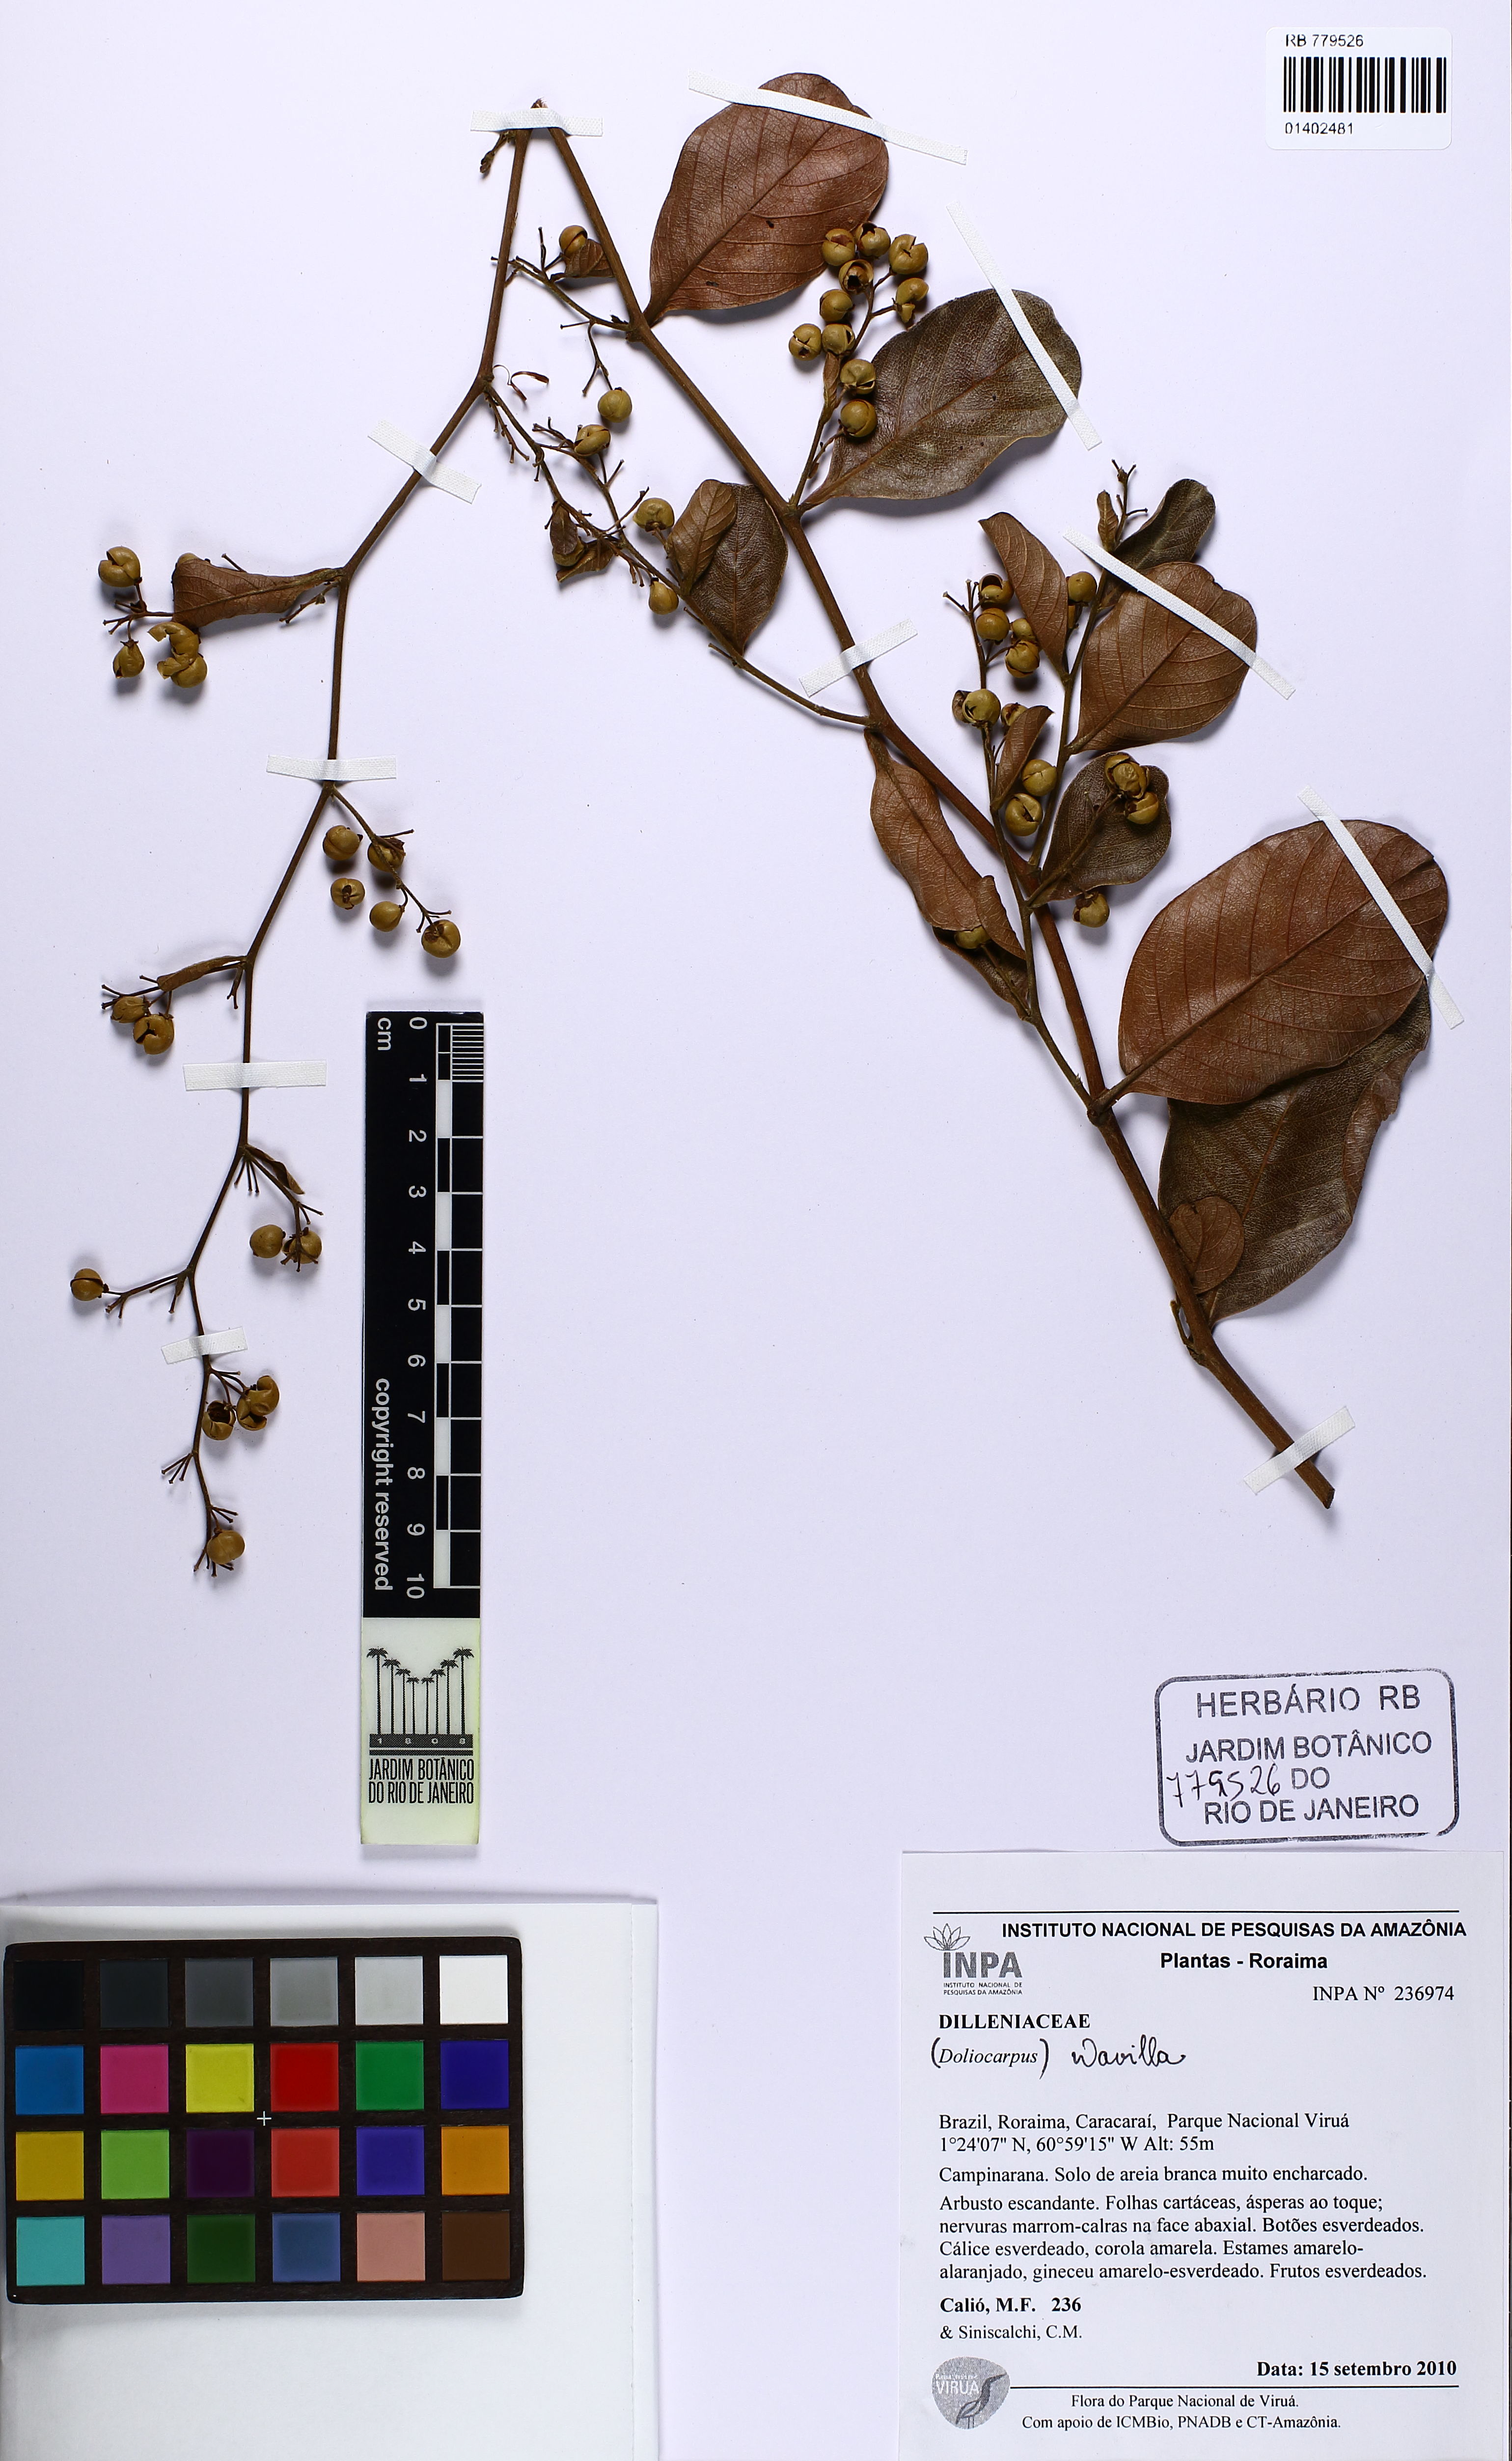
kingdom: Plantae
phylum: Tracheophyta
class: Magnoliopsida
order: Dilleniales
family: Dilleniaceae
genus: Davilla
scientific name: Davilla
